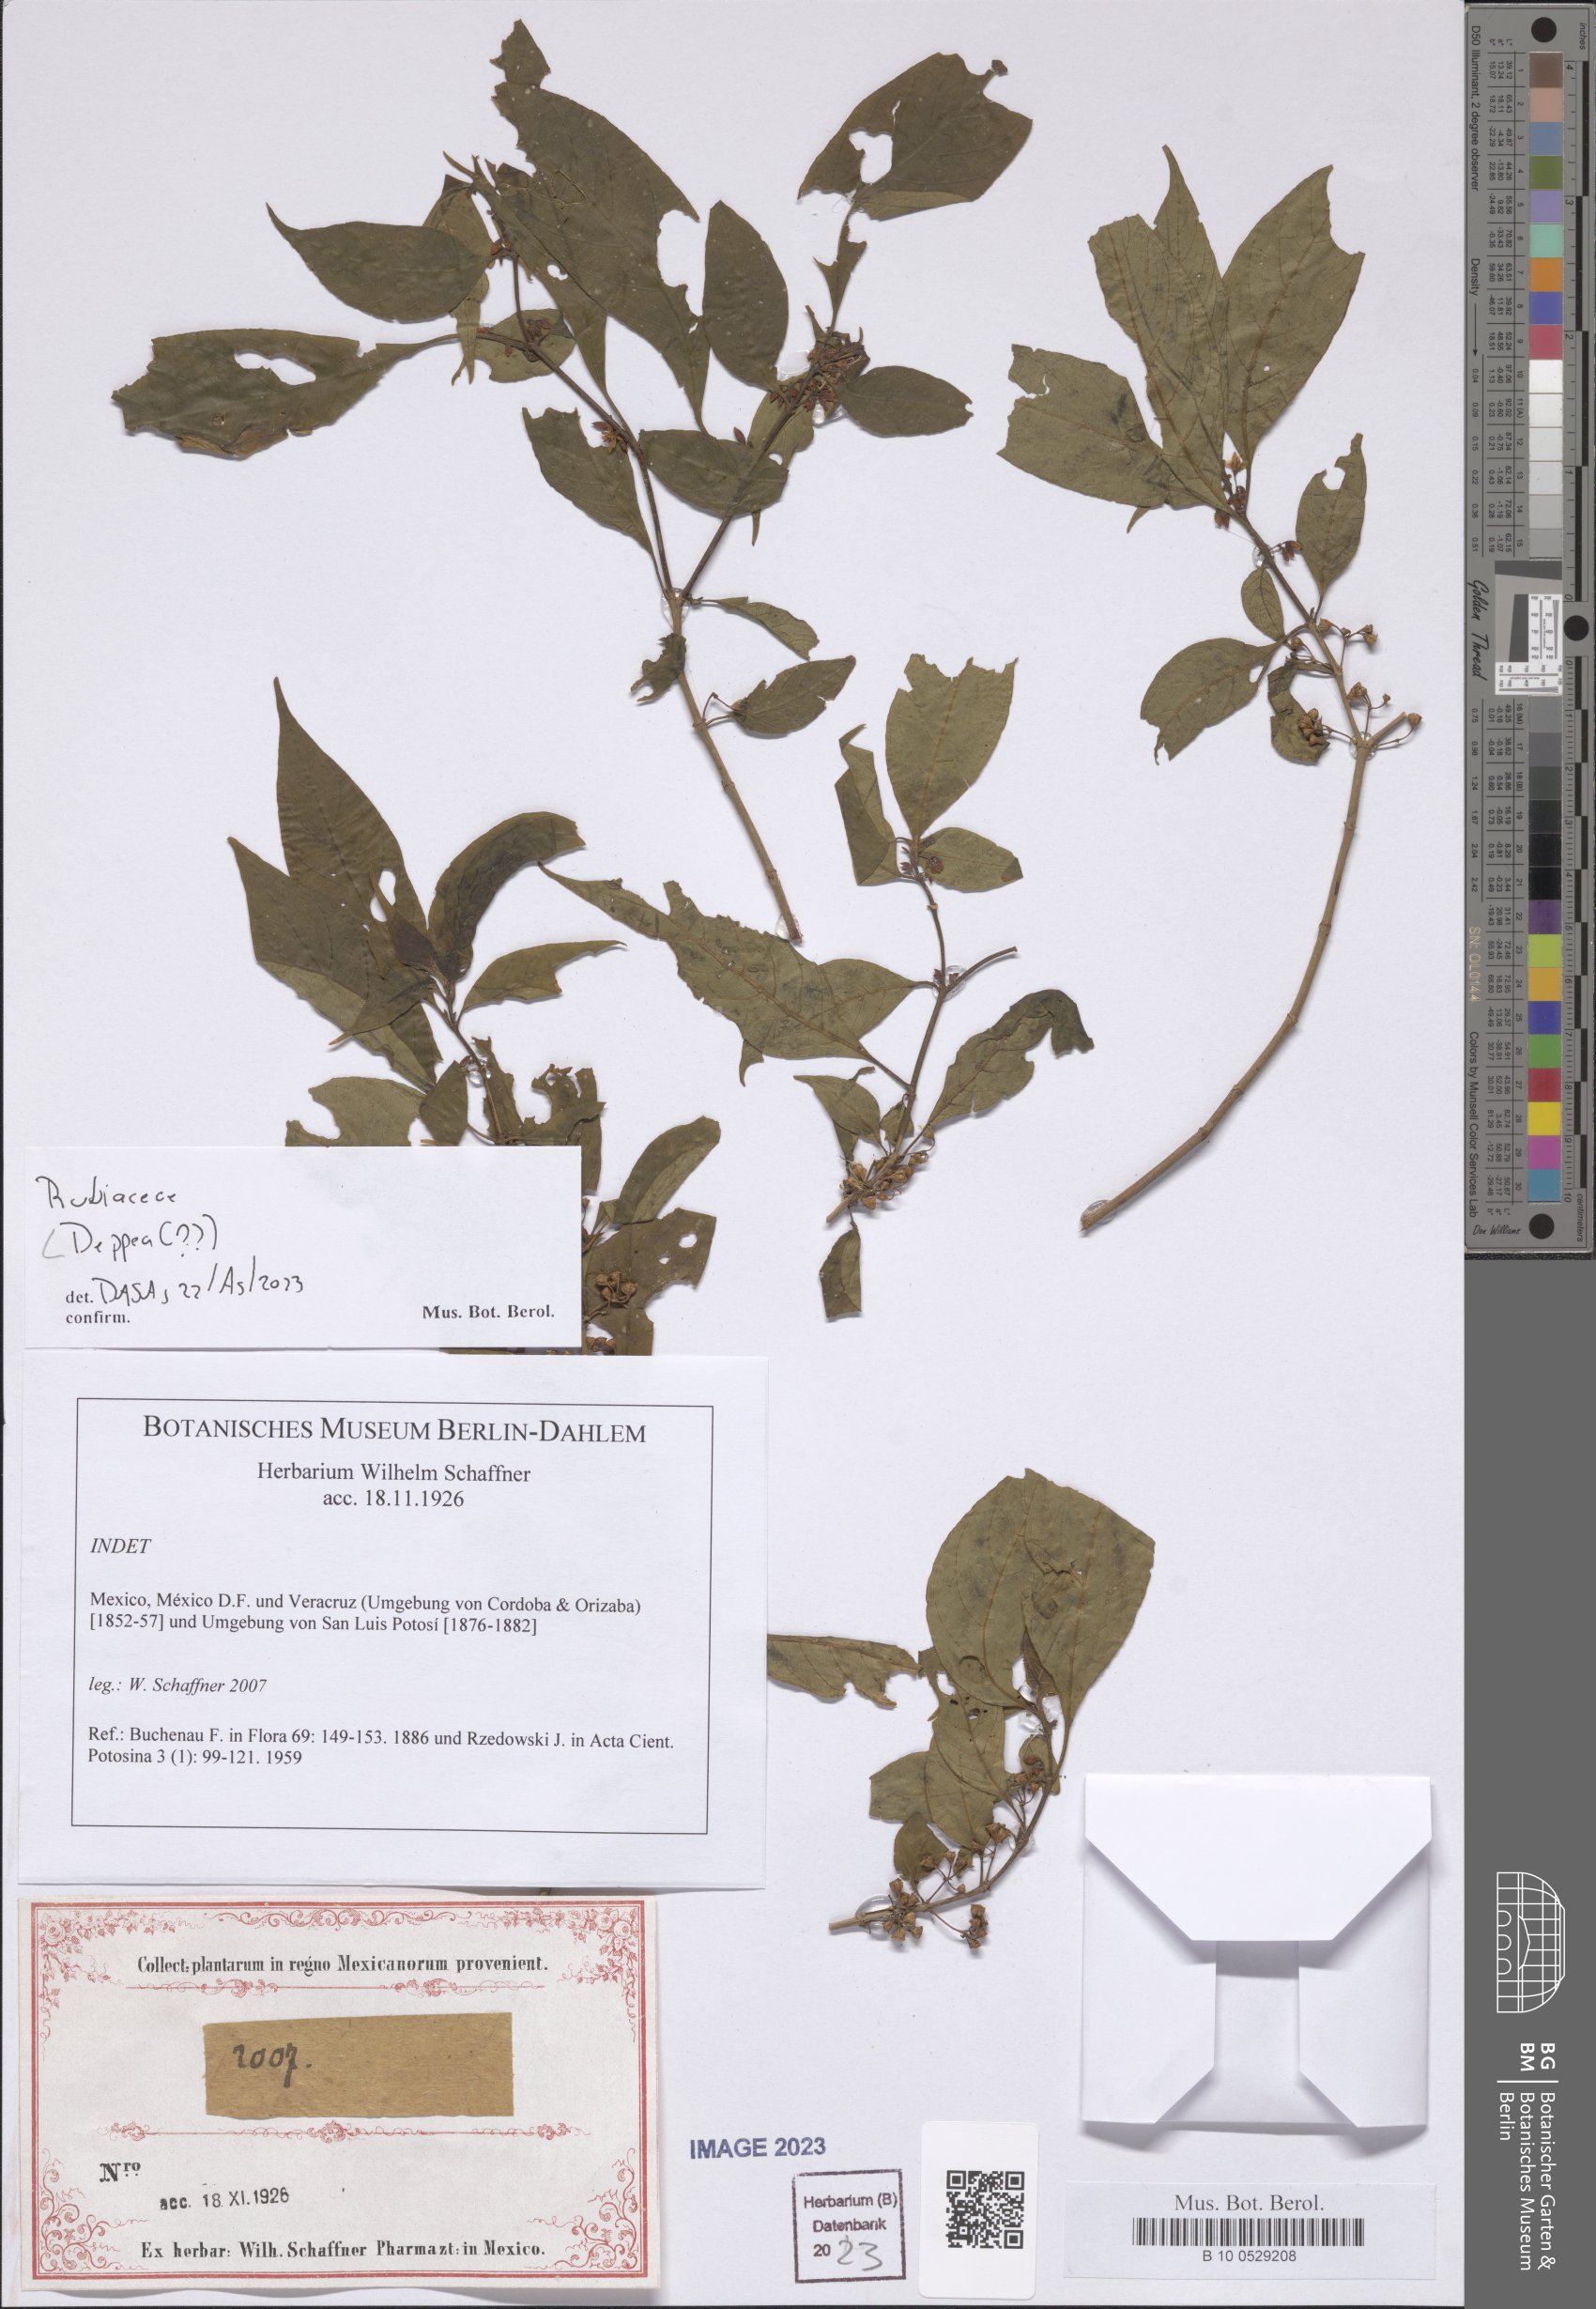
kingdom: Plantae
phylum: Tracheophyta
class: Magnoliopsida
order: Gentianales
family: Rubiaceae
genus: Deppea
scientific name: Deppea
